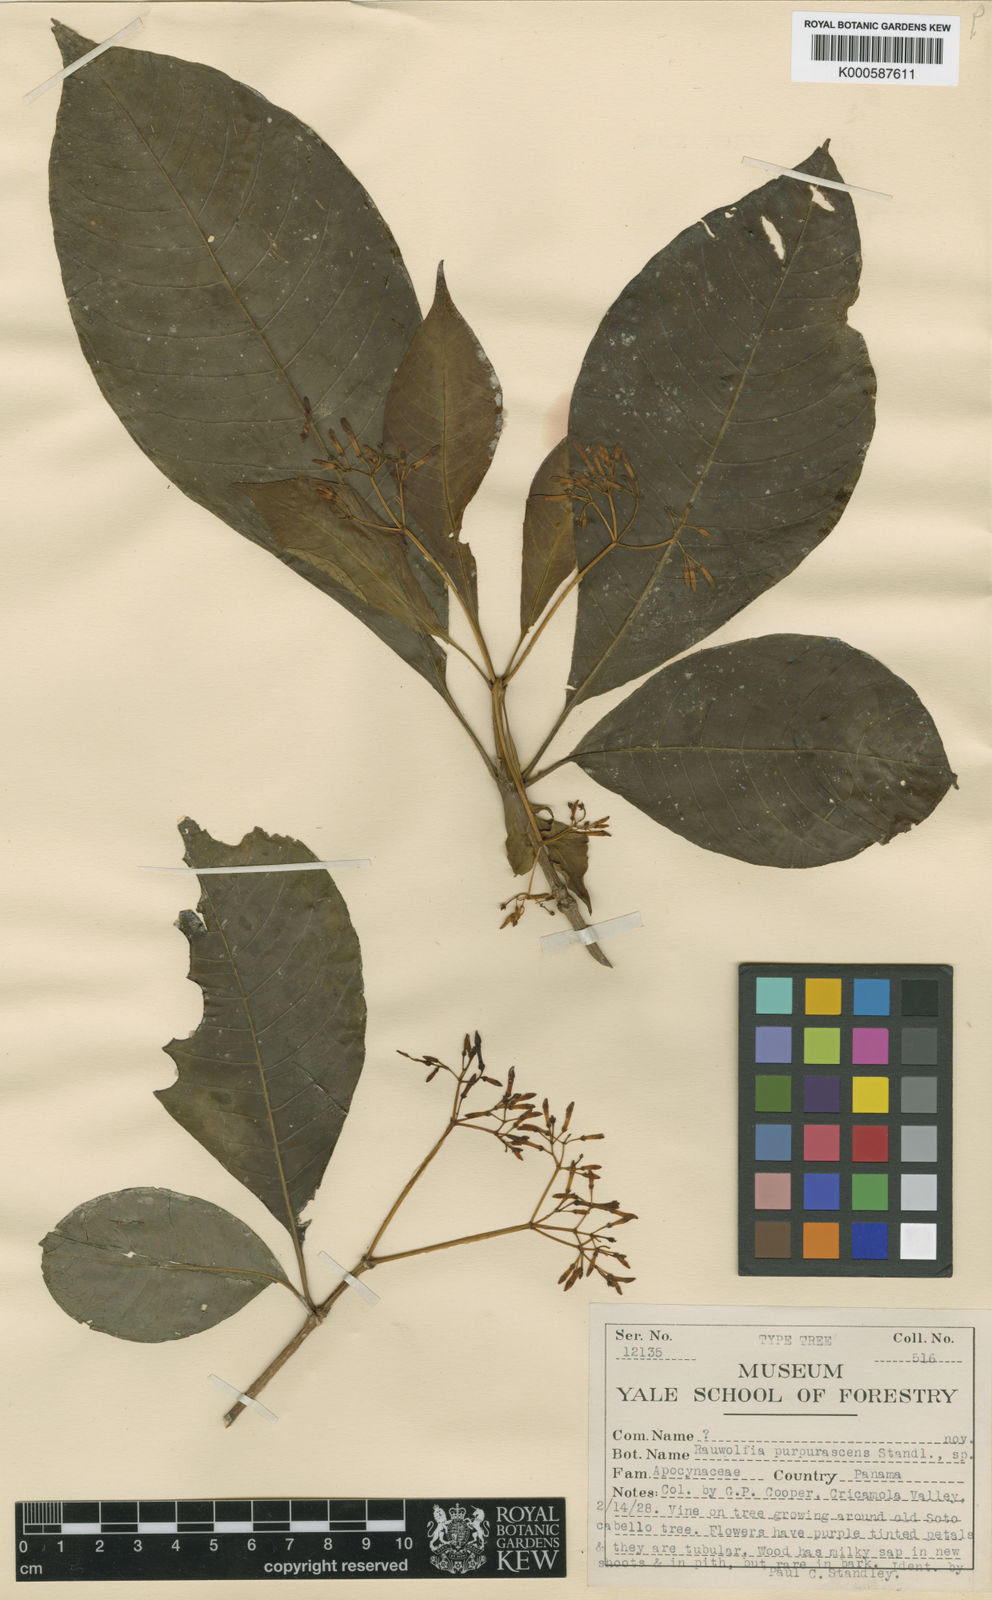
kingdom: Plantae
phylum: Tracheophyta
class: Magnoliopsida
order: Gentianales
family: Apocynaceae
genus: Rauvolfia
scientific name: Rauvolfia purpurascens
